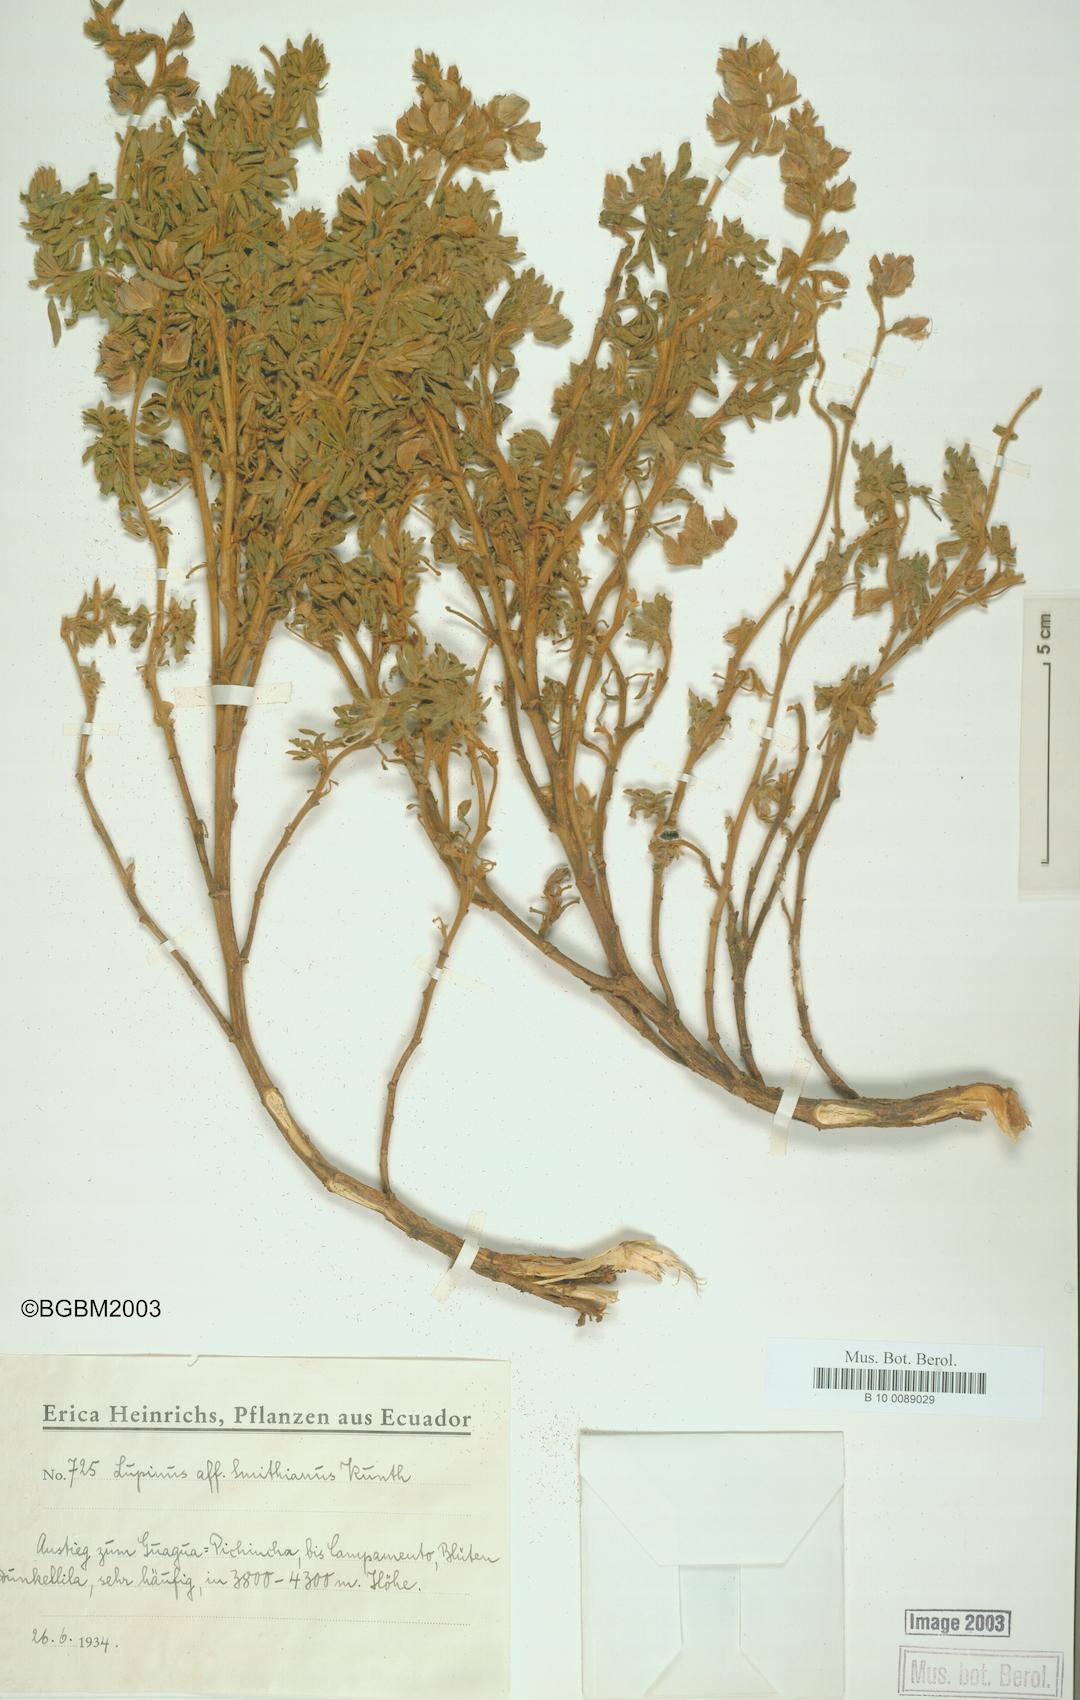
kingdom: Plantae
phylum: Tracheophyta
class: Magnoliopsida
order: Fabales
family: Fabaceae
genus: Lupinus
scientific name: Lupinus smithianus
